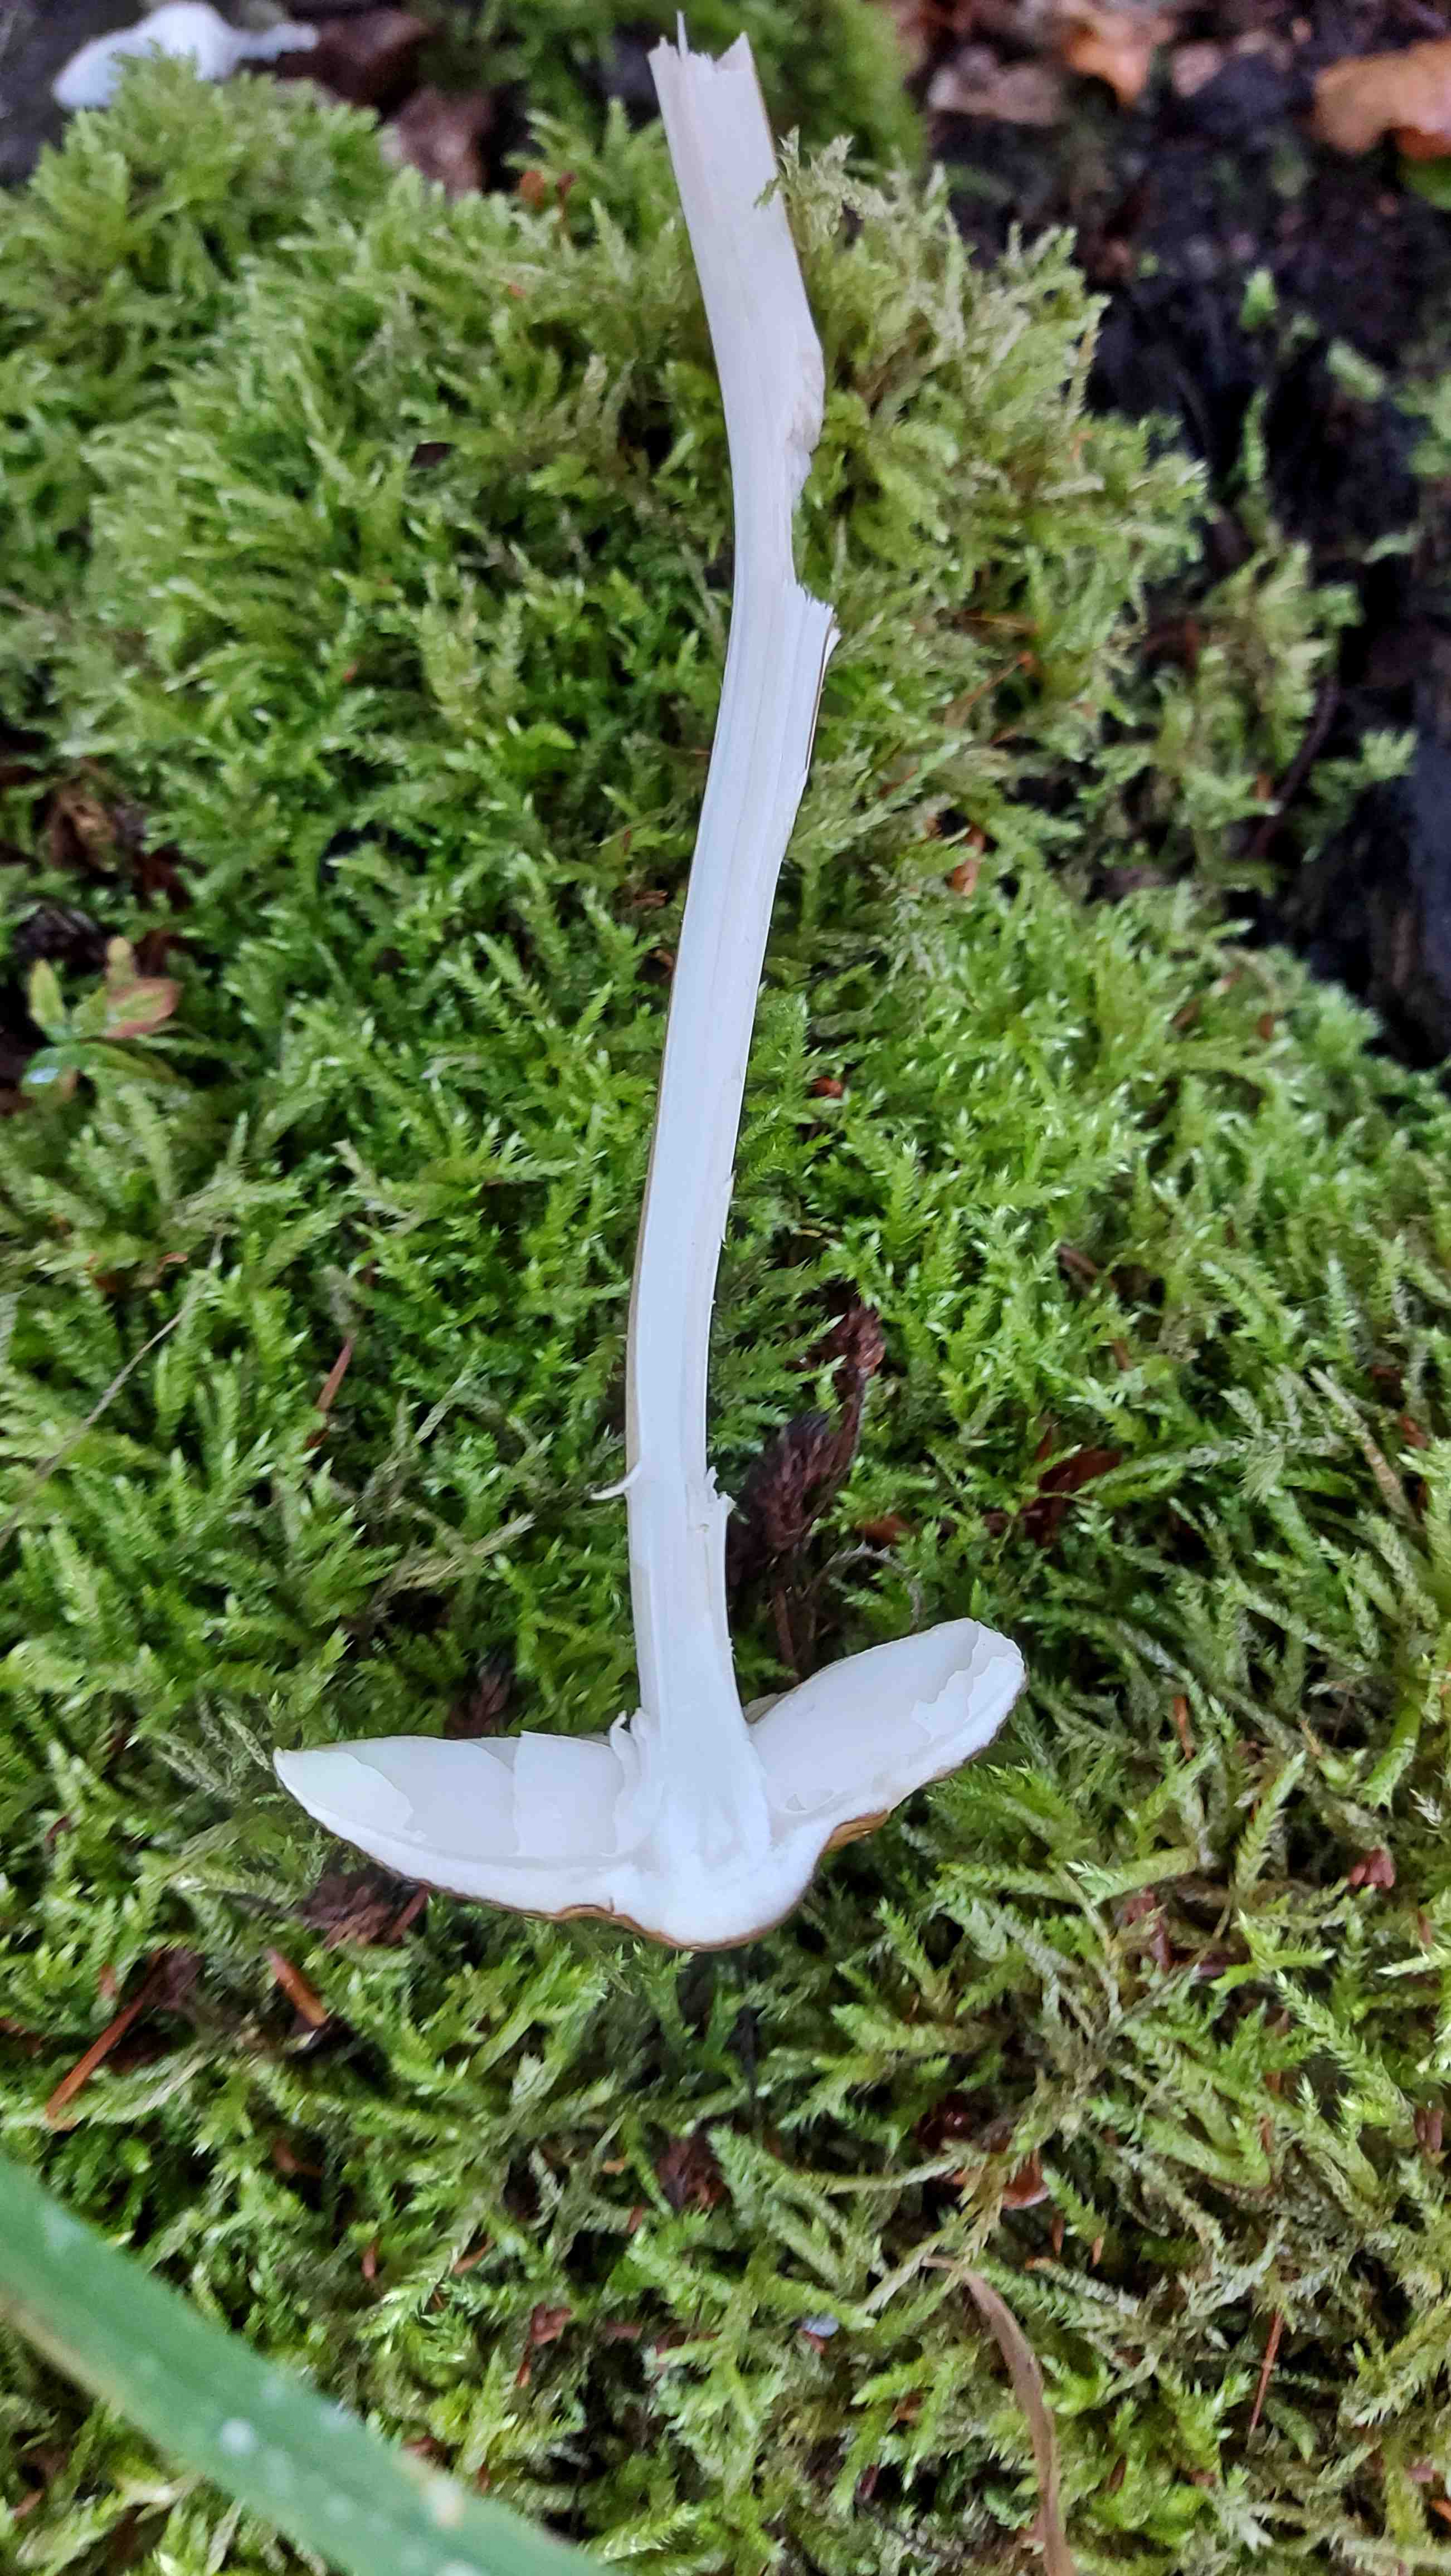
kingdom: Fungi
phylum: Basidiomycota
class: Agaricomycetes
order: Agaricales
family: Physalacriaceae
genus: Hymenopellis
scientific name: Hymenopellis radicata
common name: almindelig pælerodshat
